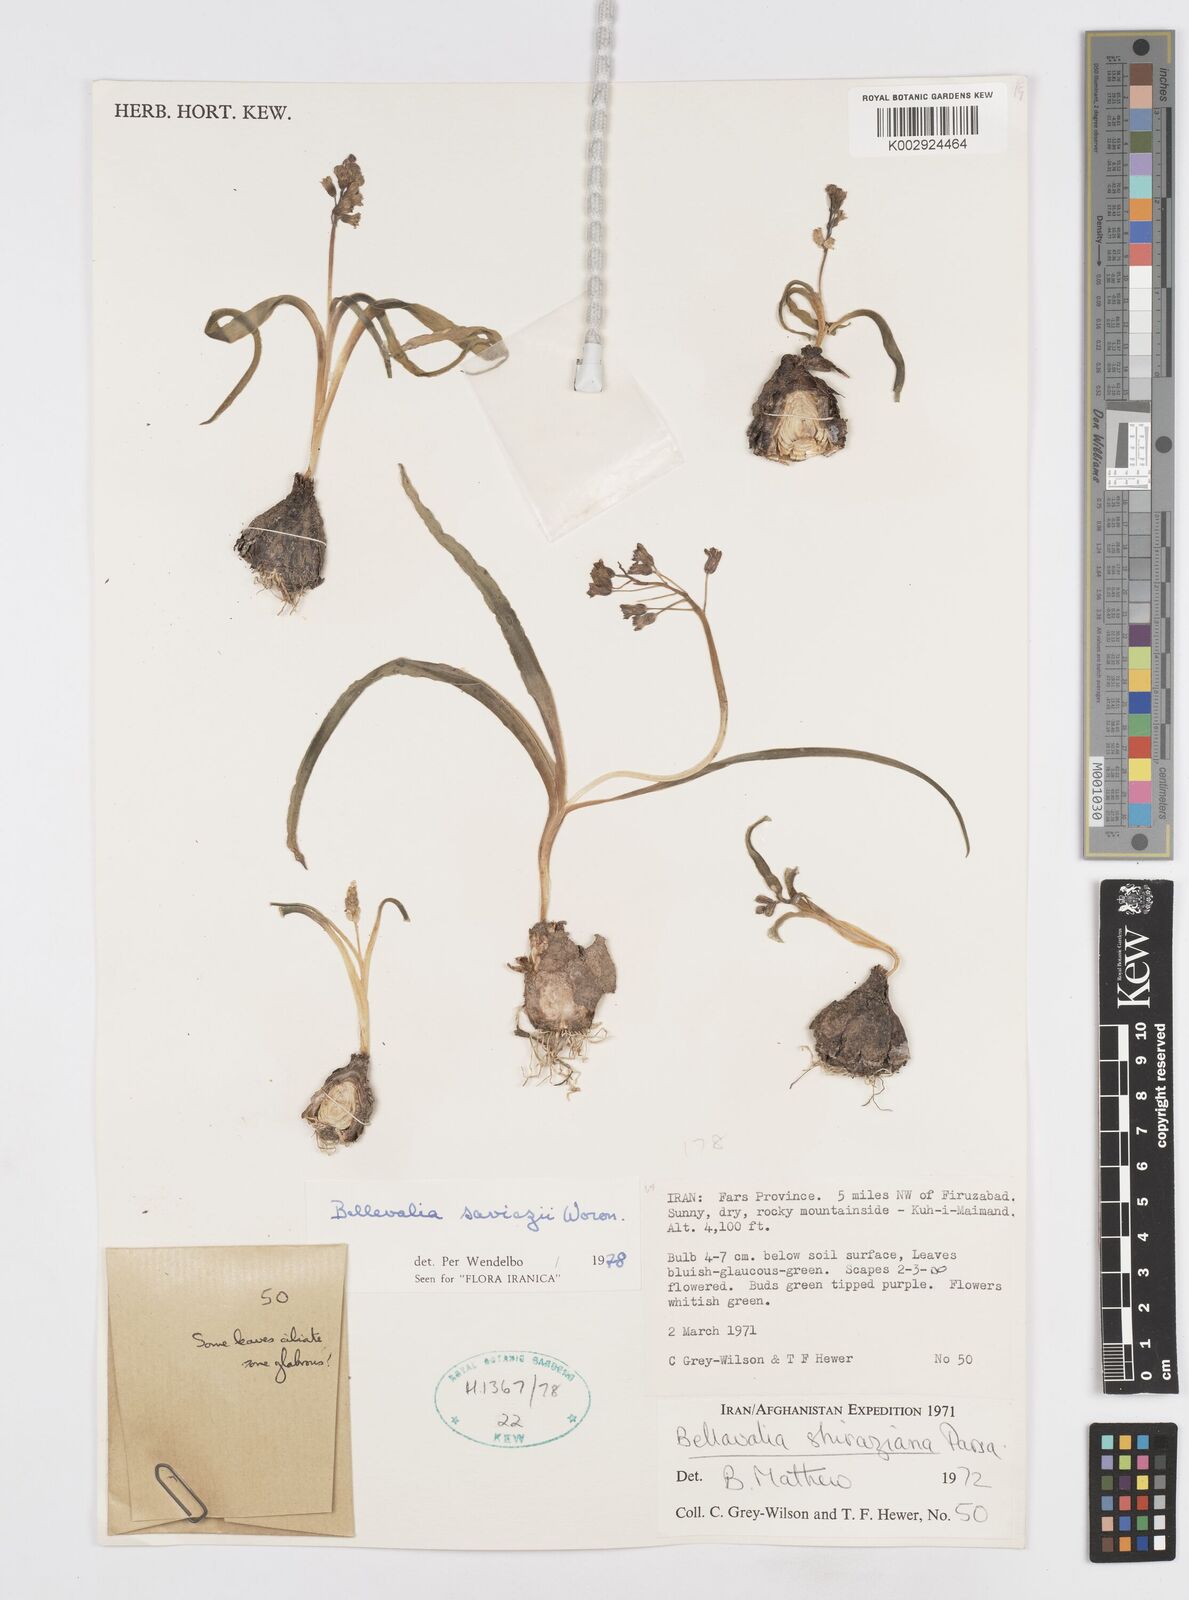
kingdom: Plantae
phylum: Tracheophyta
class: Liliopsida
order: Asparagales
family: Asparagaceae
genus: Bellevalia
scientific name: Bellevalia saviczii
